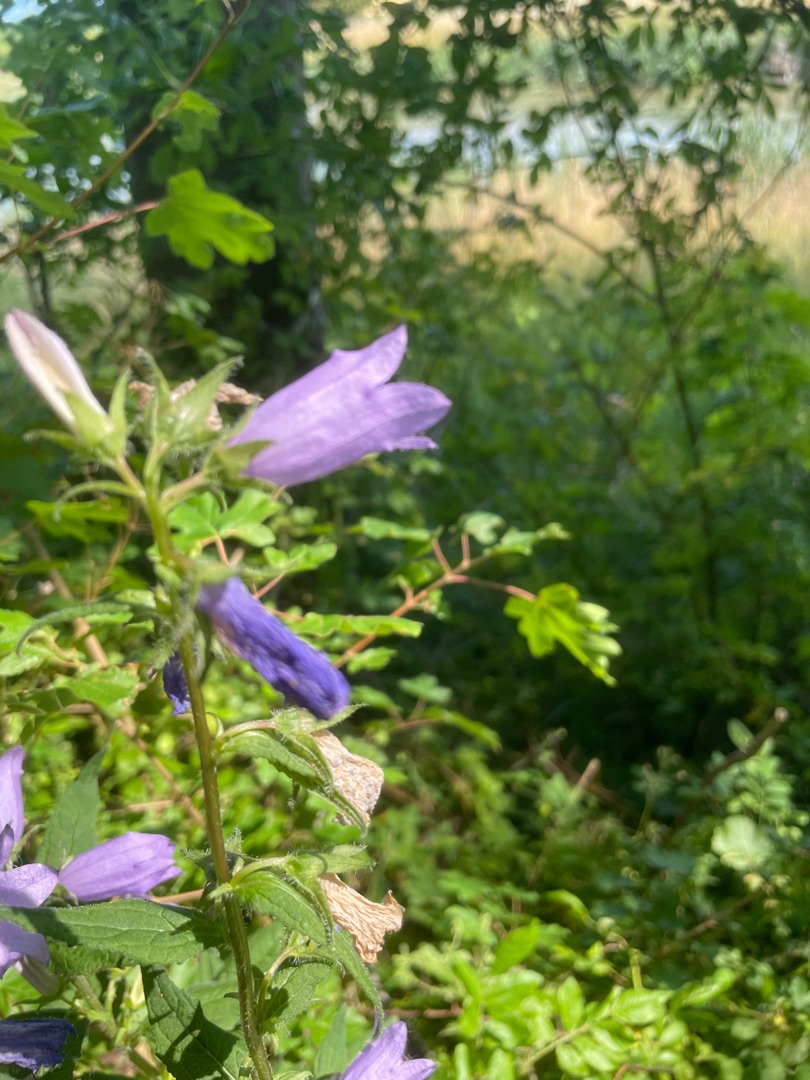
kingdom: Plantae
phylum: Tracheophyta
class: Magnoliopsida
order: Asterales
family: Campanulaceae
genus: Campanula
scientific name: Campanula trachelium
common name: Nælde-klokke
